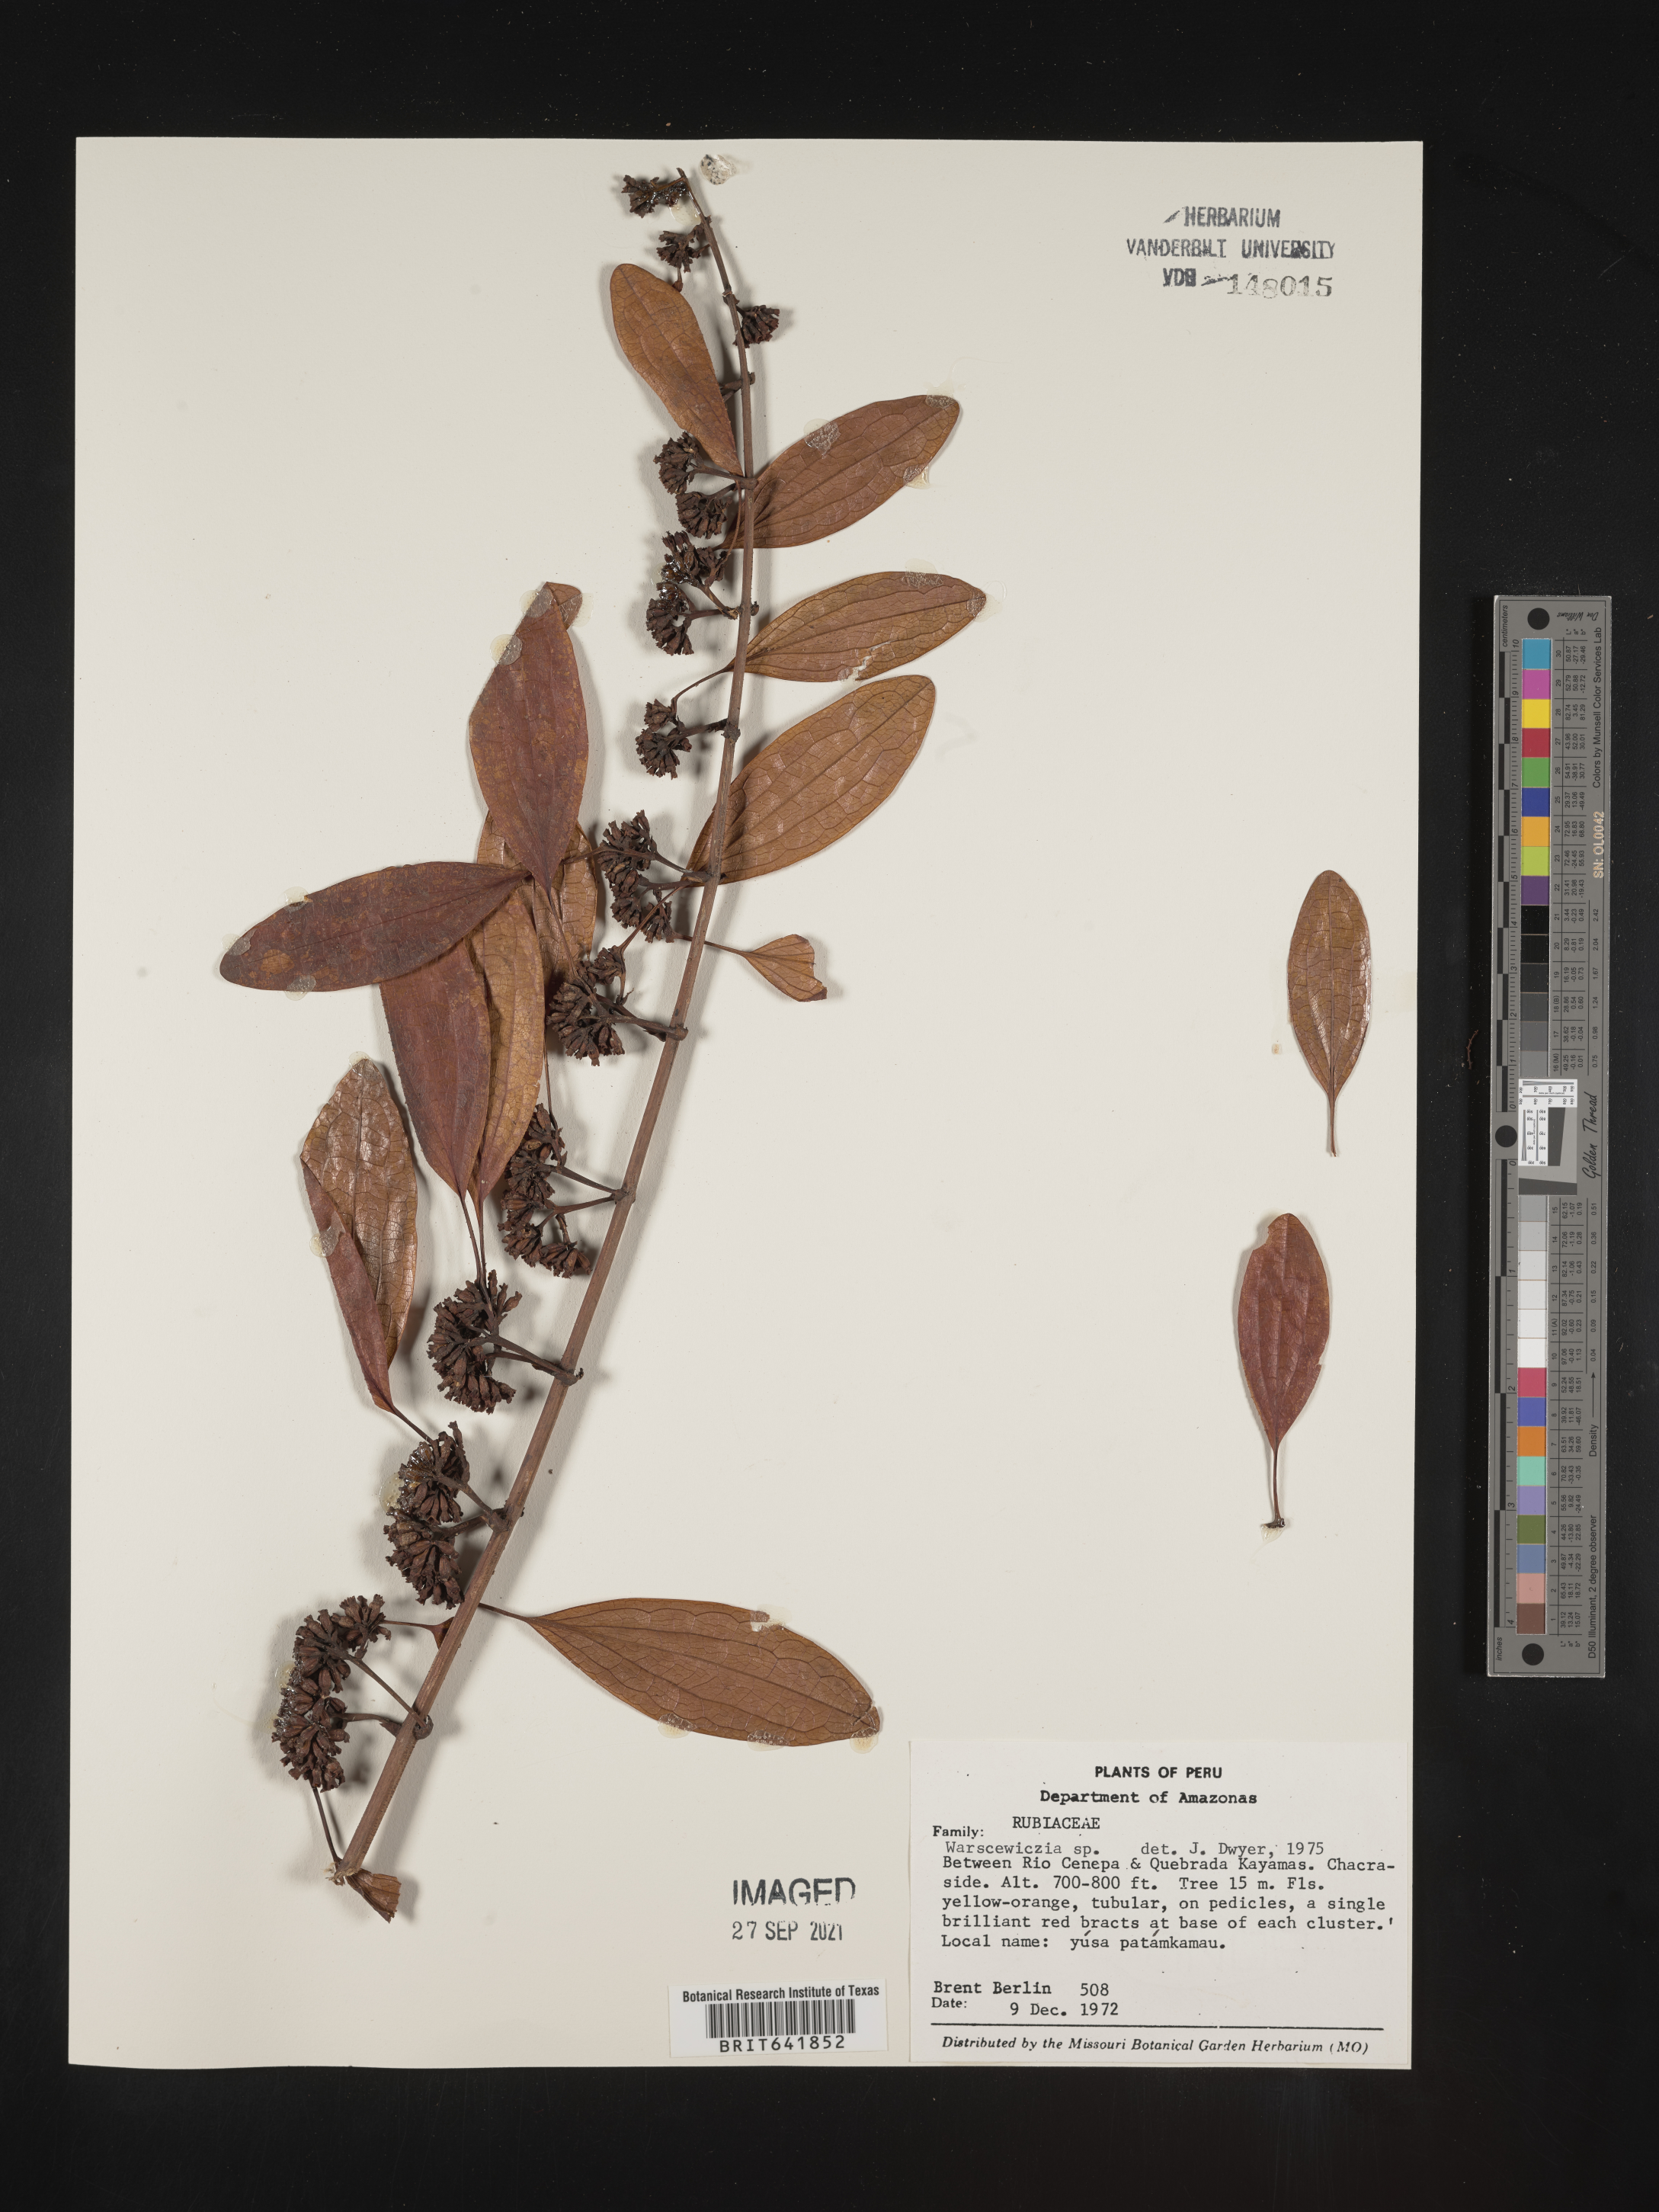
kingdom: Plantae
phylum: Tracheophyta
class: Magnoliopsida
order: Gentianales
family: Rubiaceae
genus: Warszewiczia
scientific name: Warszewiczia
